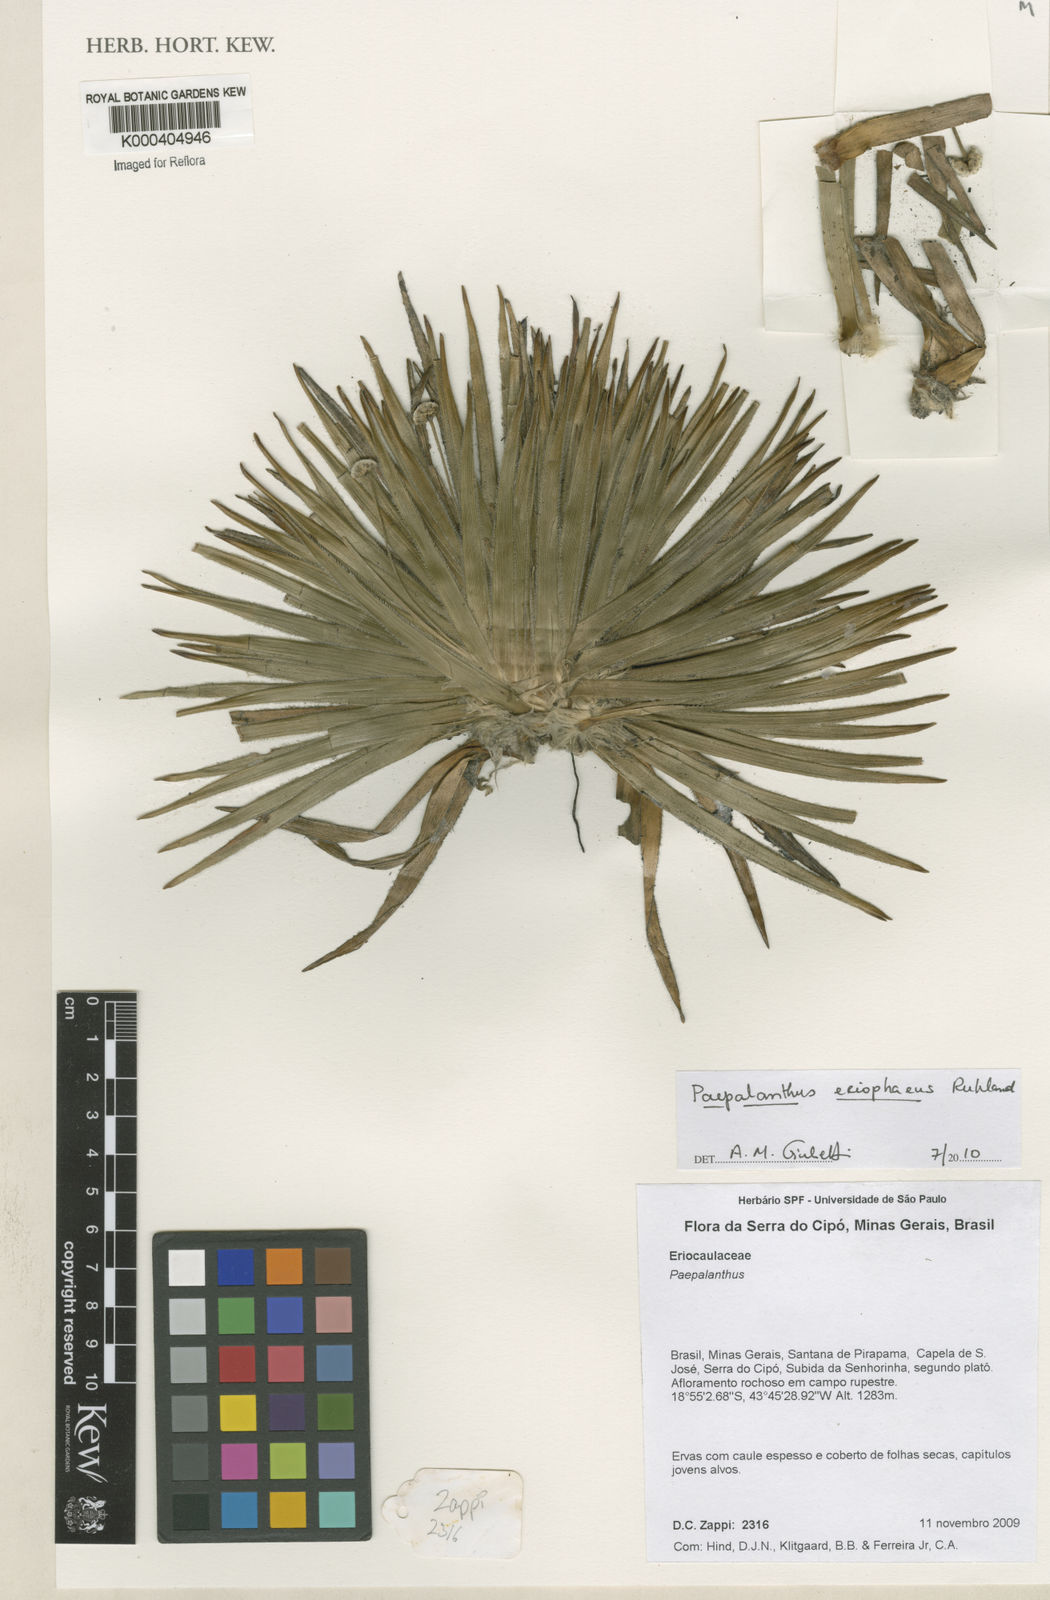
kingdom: Plantae
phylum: Tracheophyta
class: Liliopsida
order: Poales
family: Eriocaulaceae
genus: Paepalanthus
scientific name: Paepalanthus eriophaeus
